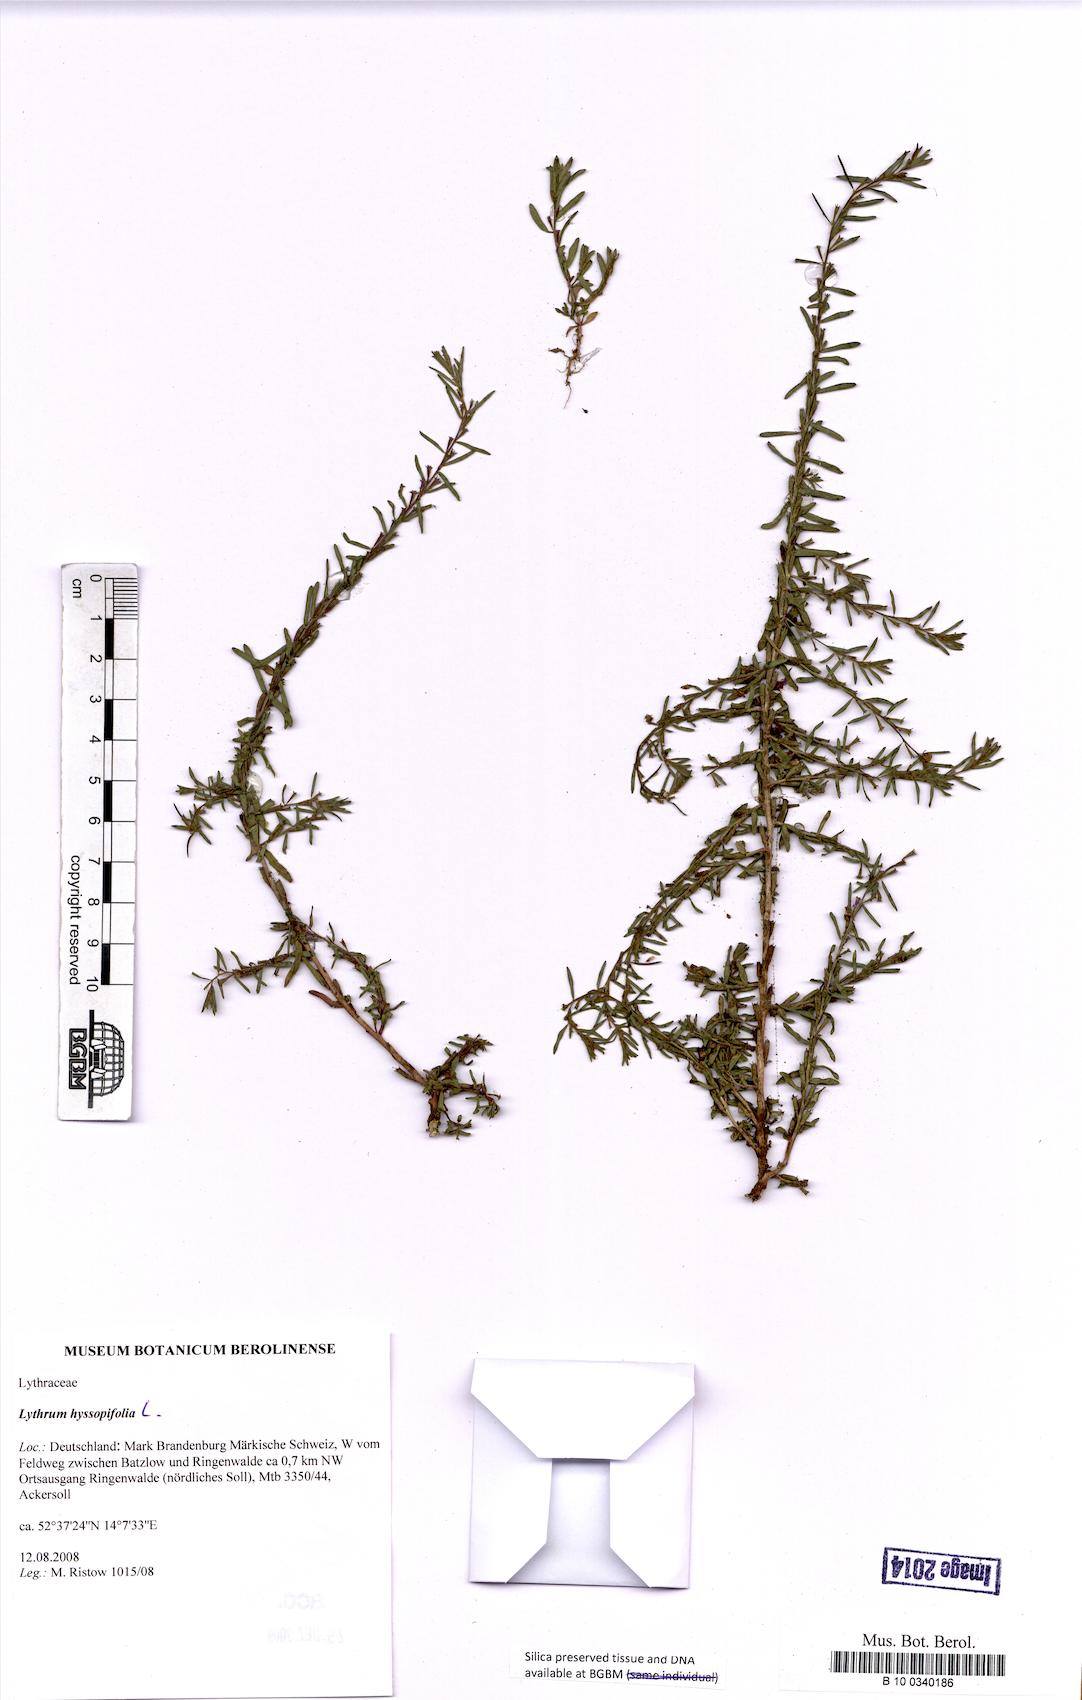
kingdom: Plantae
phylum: Tracheophyta
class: Magnoliopsida
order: Myrtales
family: Lythraceae
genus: Lythrum
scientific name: Lythrum hyssopifolia
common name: Grass-poly
